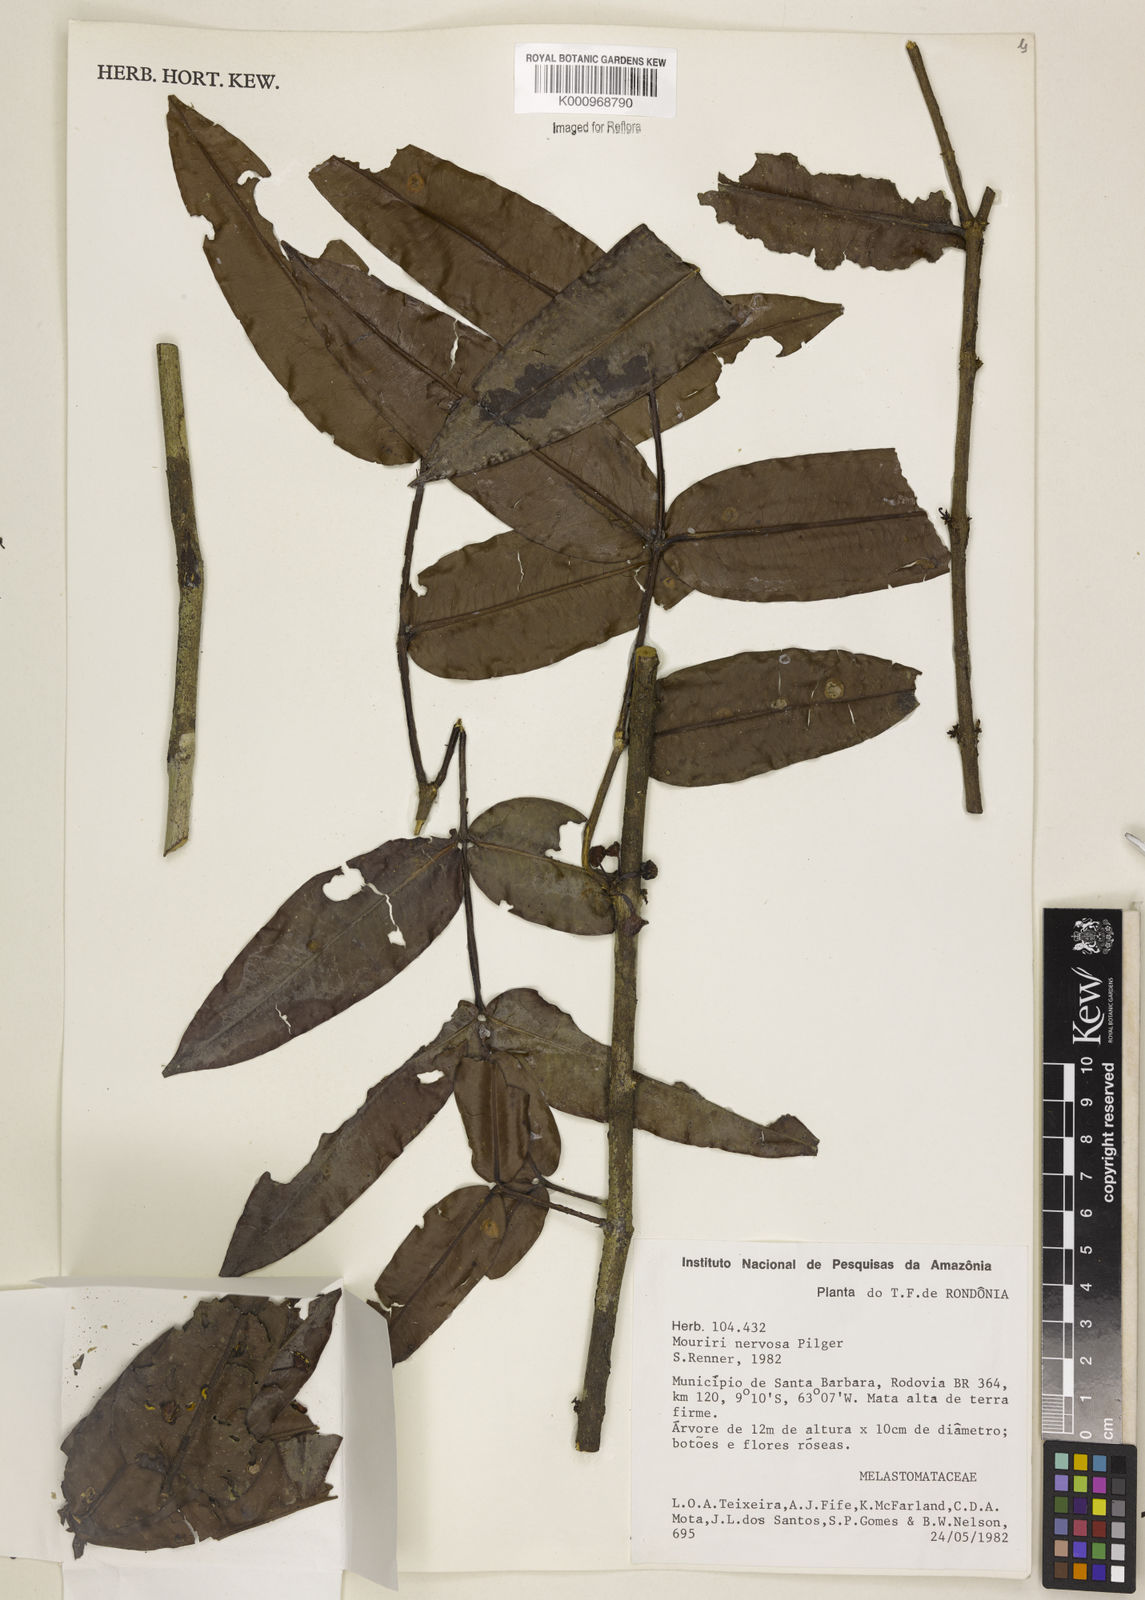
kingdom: Plantae
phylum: Tracheophyta
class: Magnoliopsida
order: Myrtales
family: Melastomataceae
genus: Mouriri
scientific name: Mouriri sideroxylon
